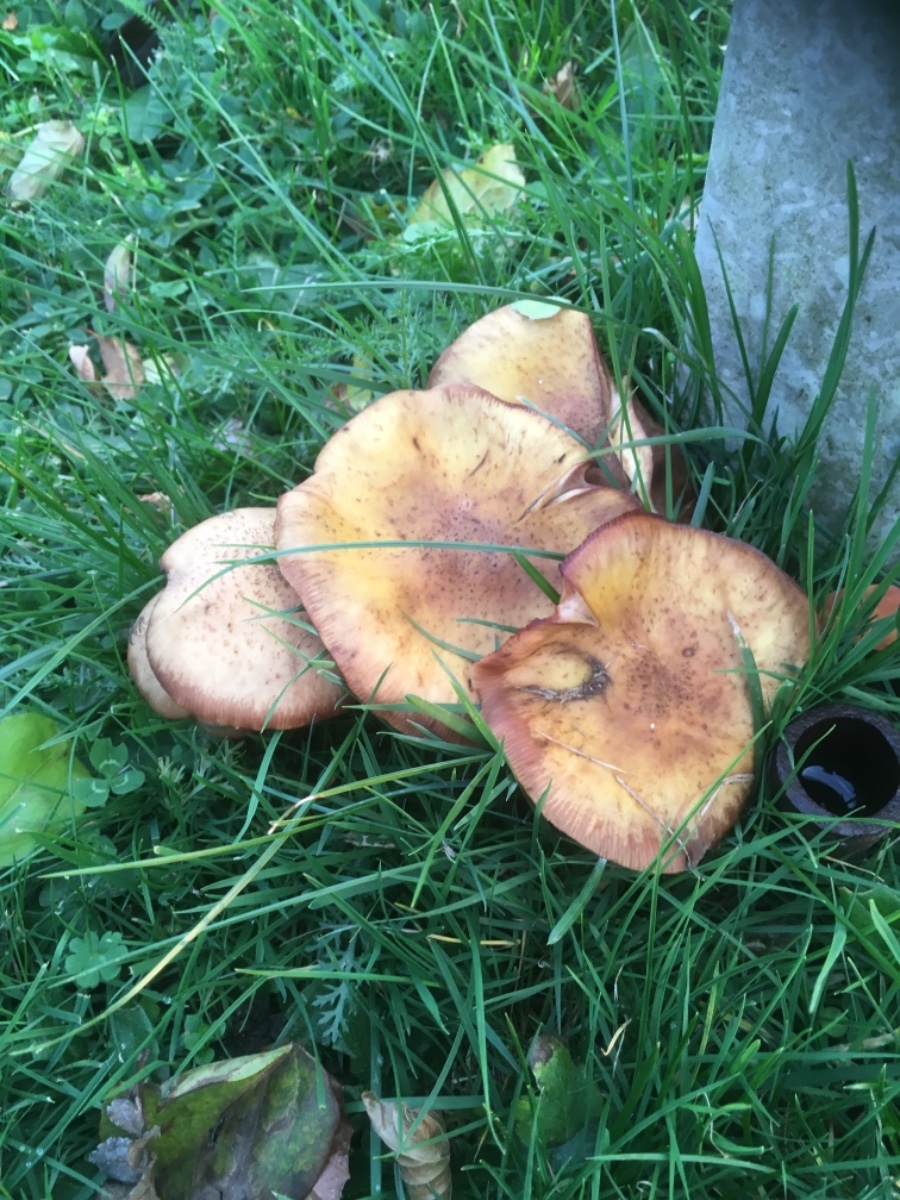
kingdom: Fungi
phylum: Basidiomycota
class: Agaricomycetes
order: Agaricales
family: Physalacriaceae
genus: Armillaria
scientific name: Armillaria lutea
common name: køllestokket honningsvamp
